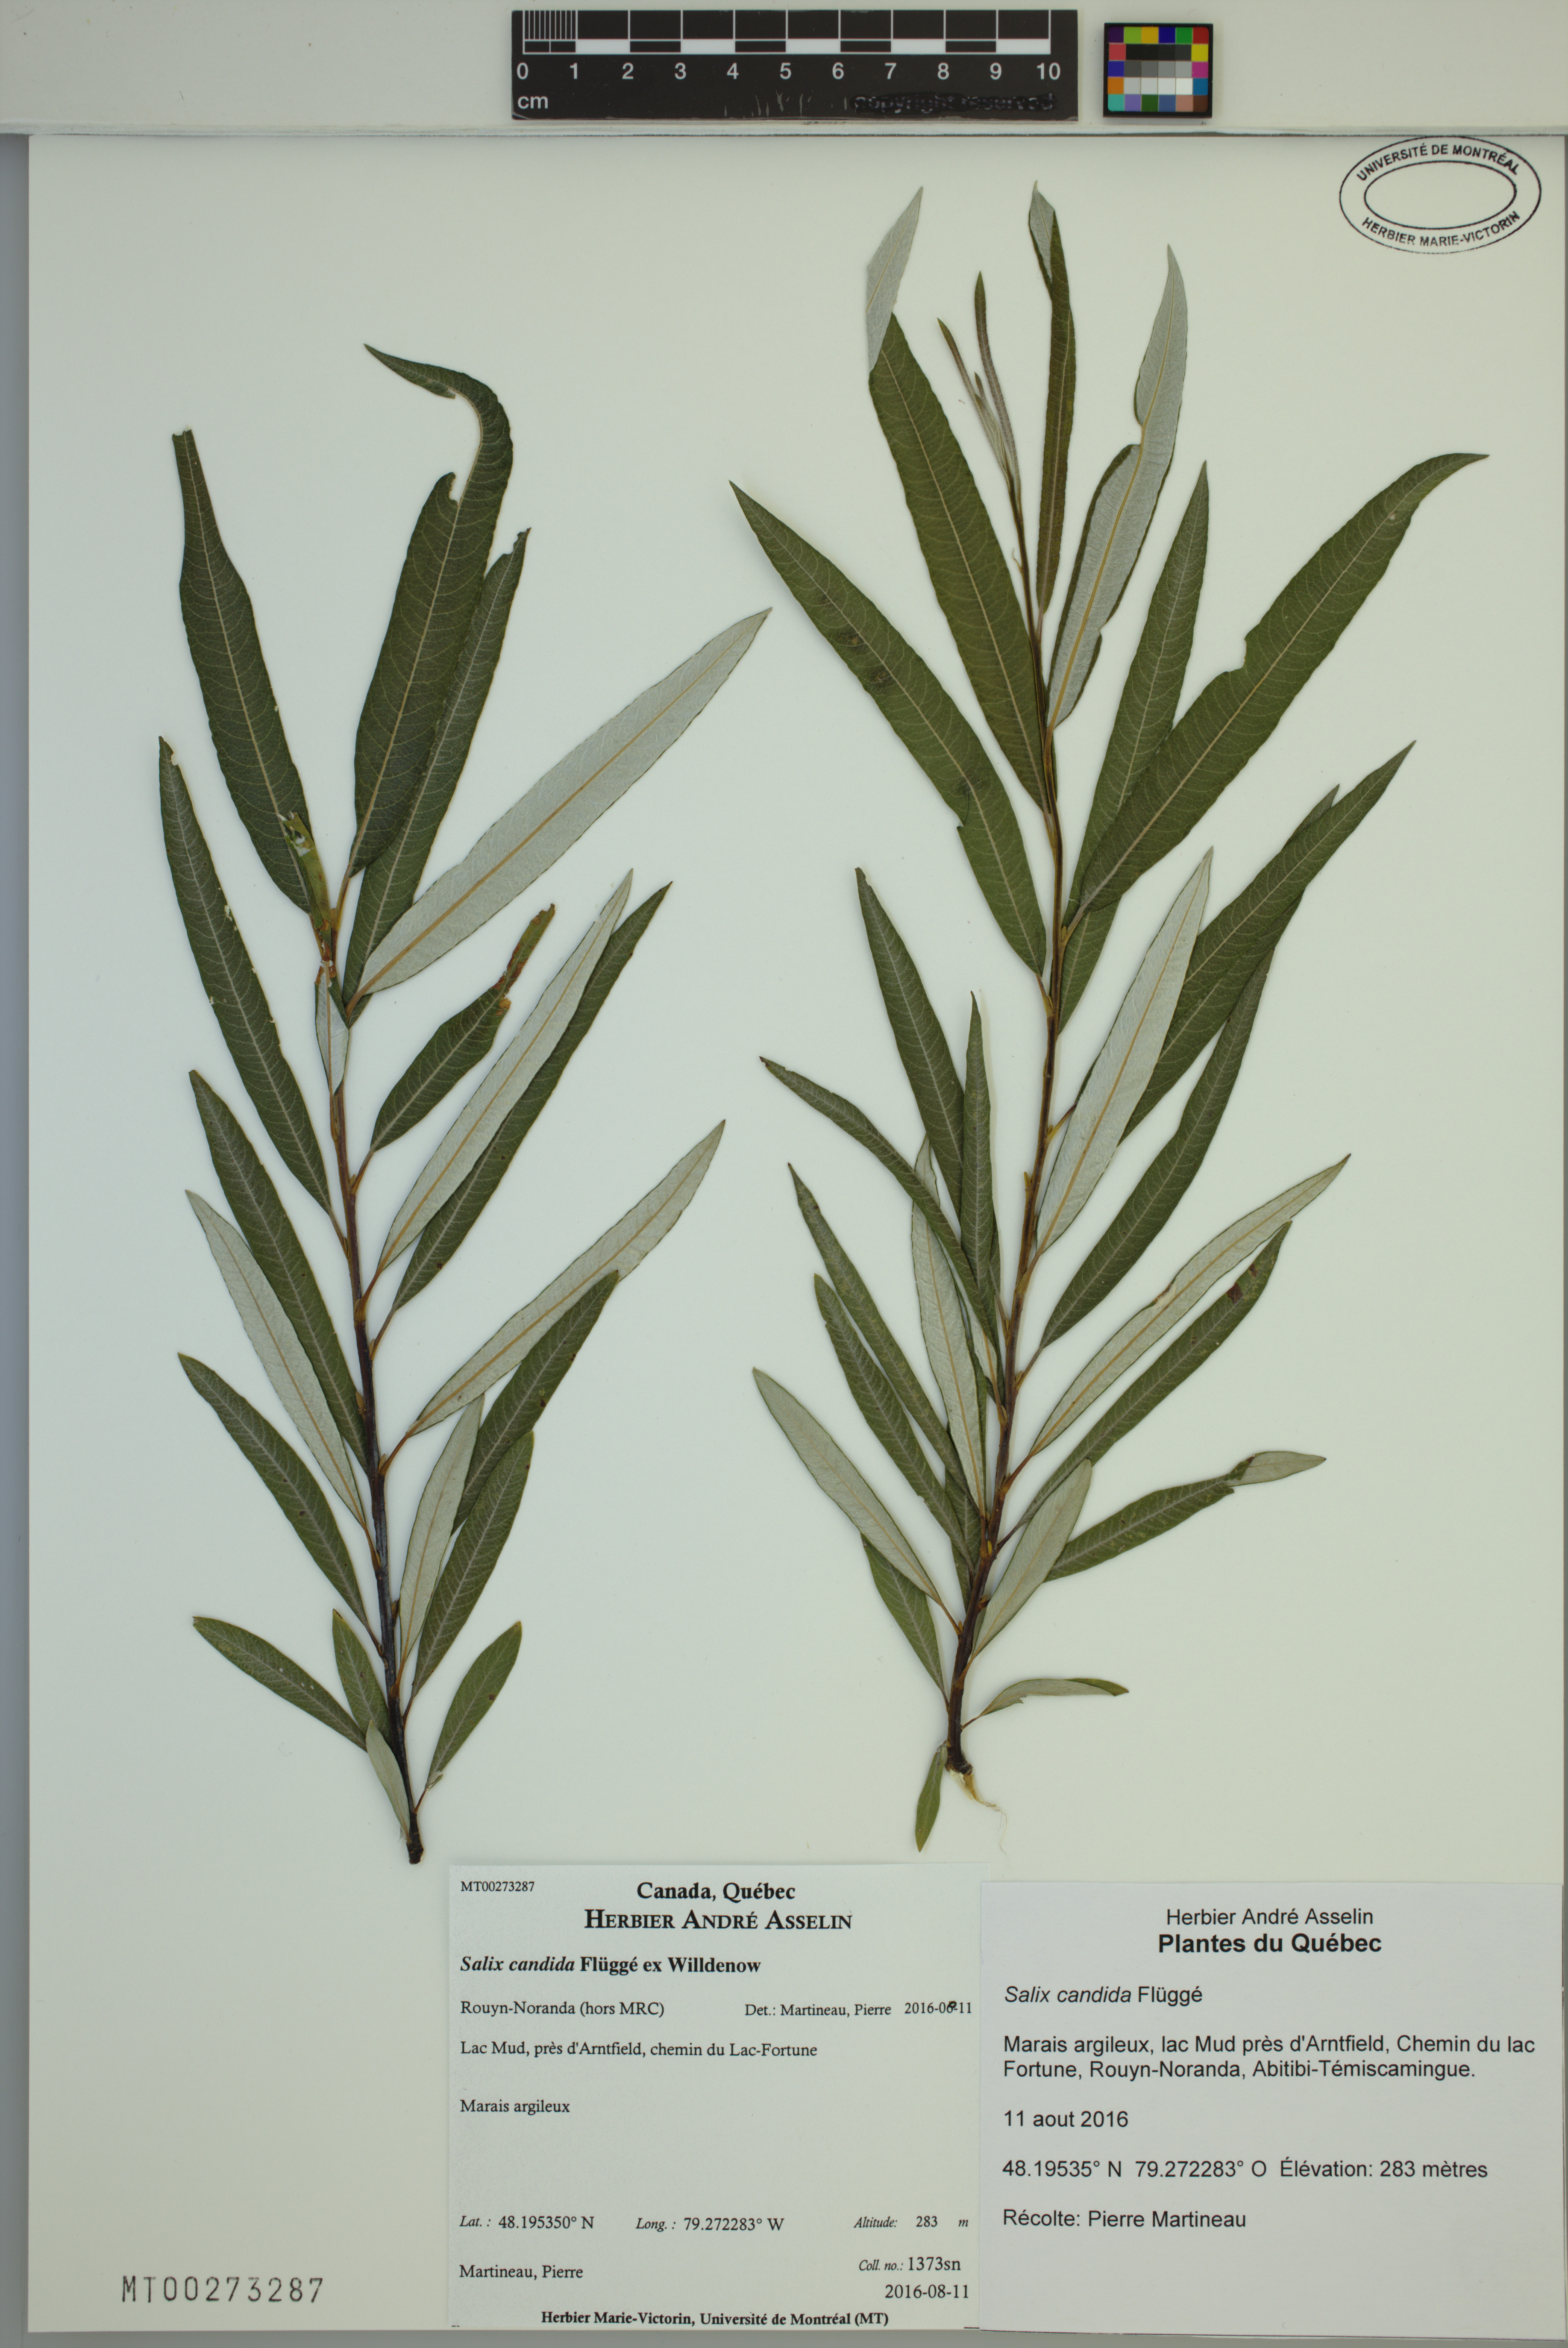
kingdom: Plantae
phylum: Tracheophyta
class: Magnoliopsida
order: Malpighiales
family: Salicaceae
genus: Salix
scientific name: Salix candida
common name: Hoary willow
